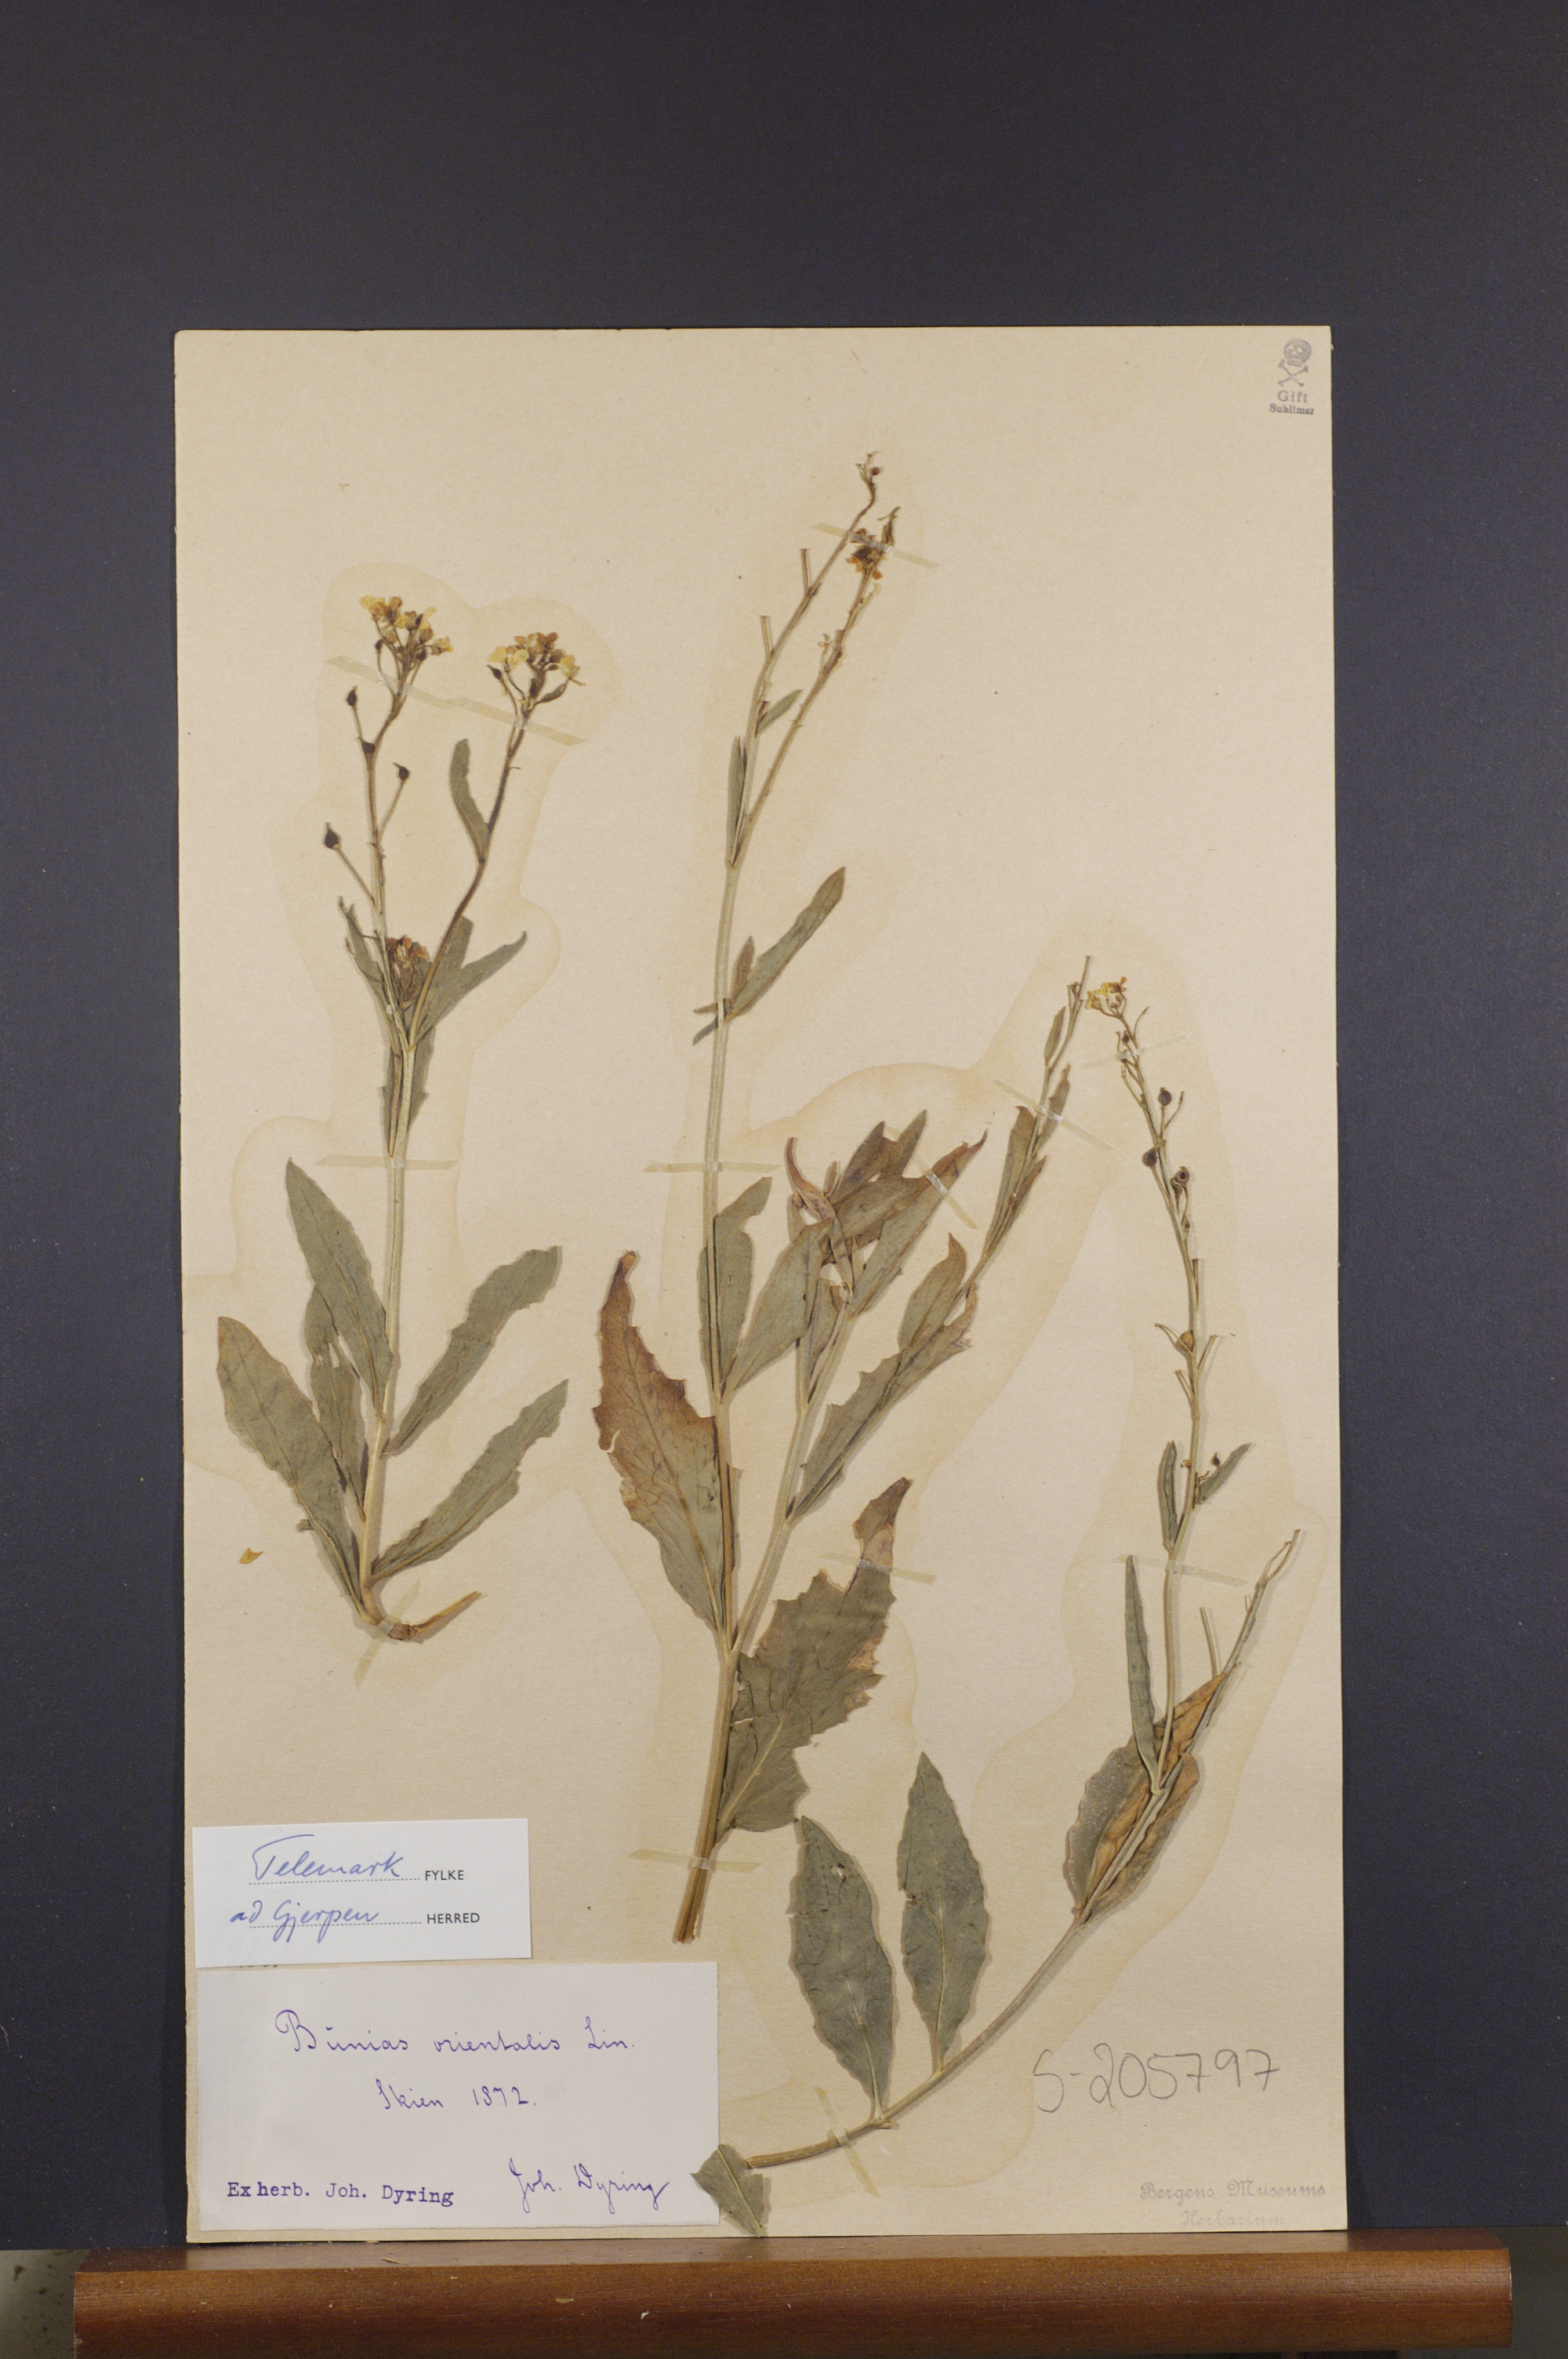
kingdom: Plantae
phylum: Tracheophyta
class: Magnoliopsida
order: Brassicales
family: Brassicaceae
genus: Bunias
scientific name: Bunias orientalis
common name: Warty-cabbage
